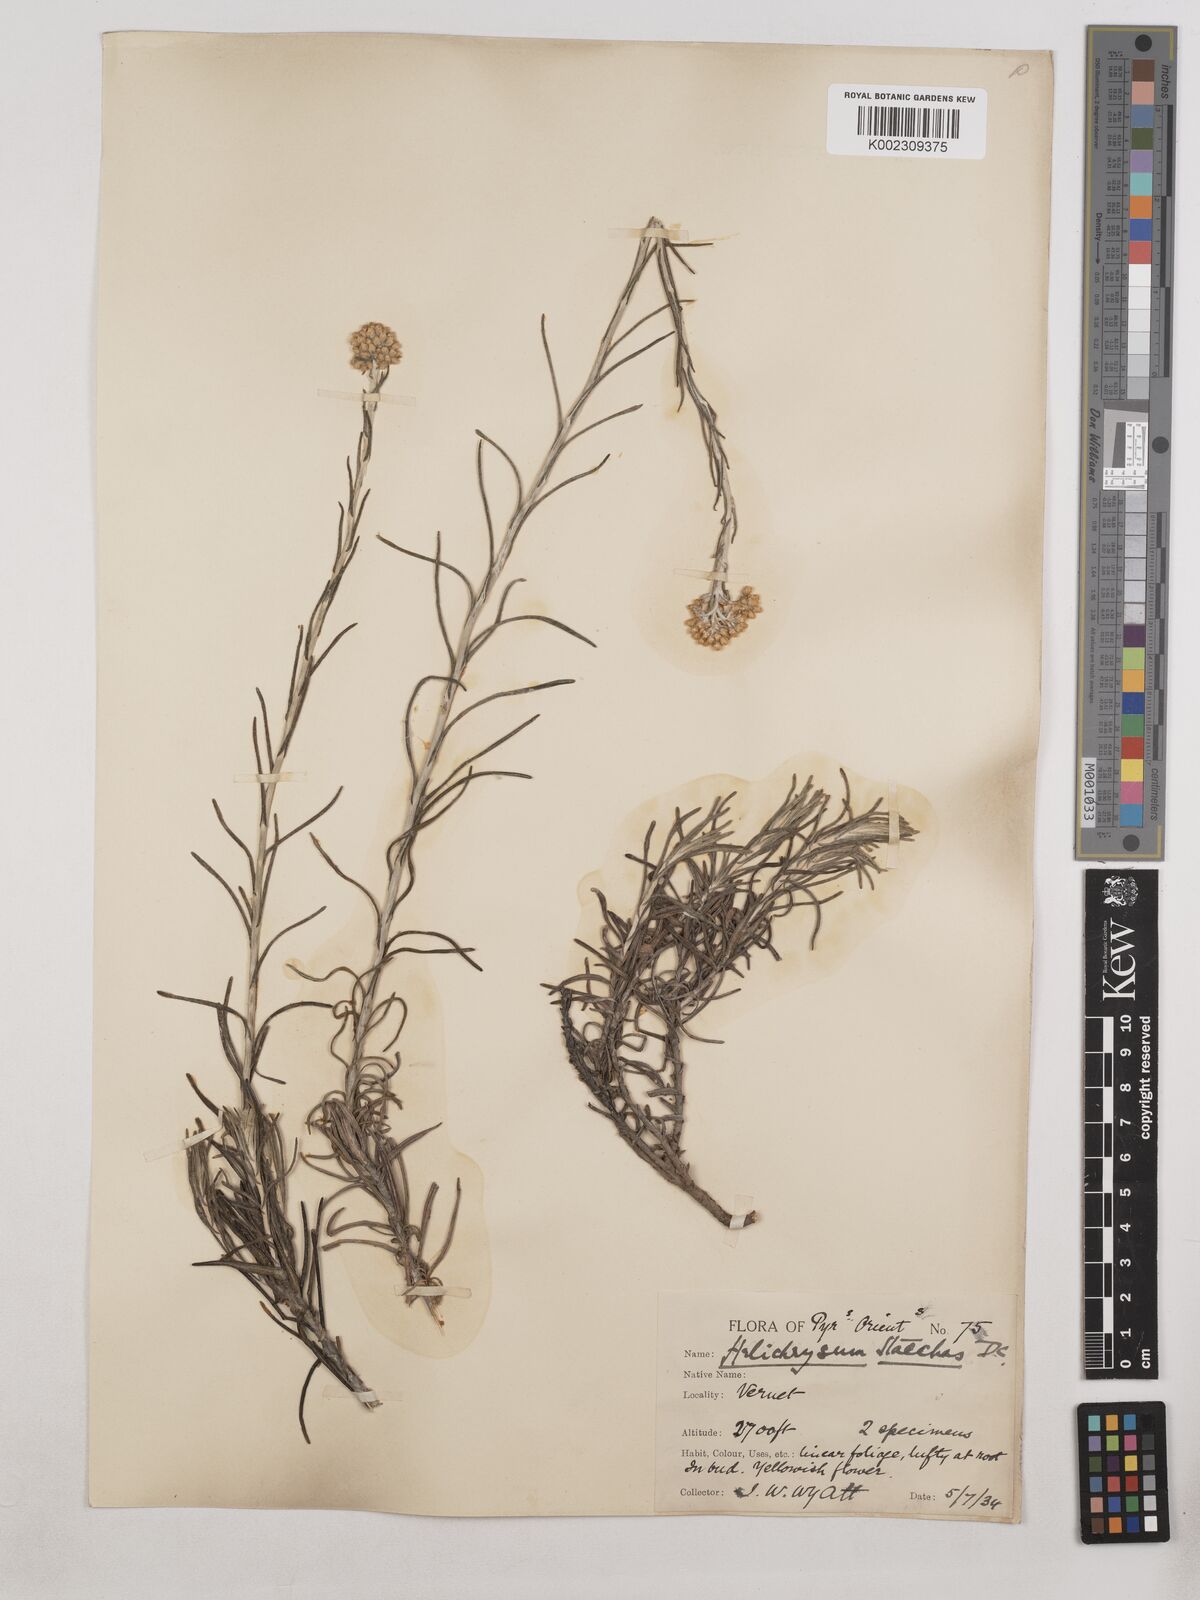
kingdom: Plantae
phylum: Tracheophyta
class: Magnoliopsida
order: Asterales
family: Asteraceae
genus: Helichrysum
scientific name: Helichrysum
